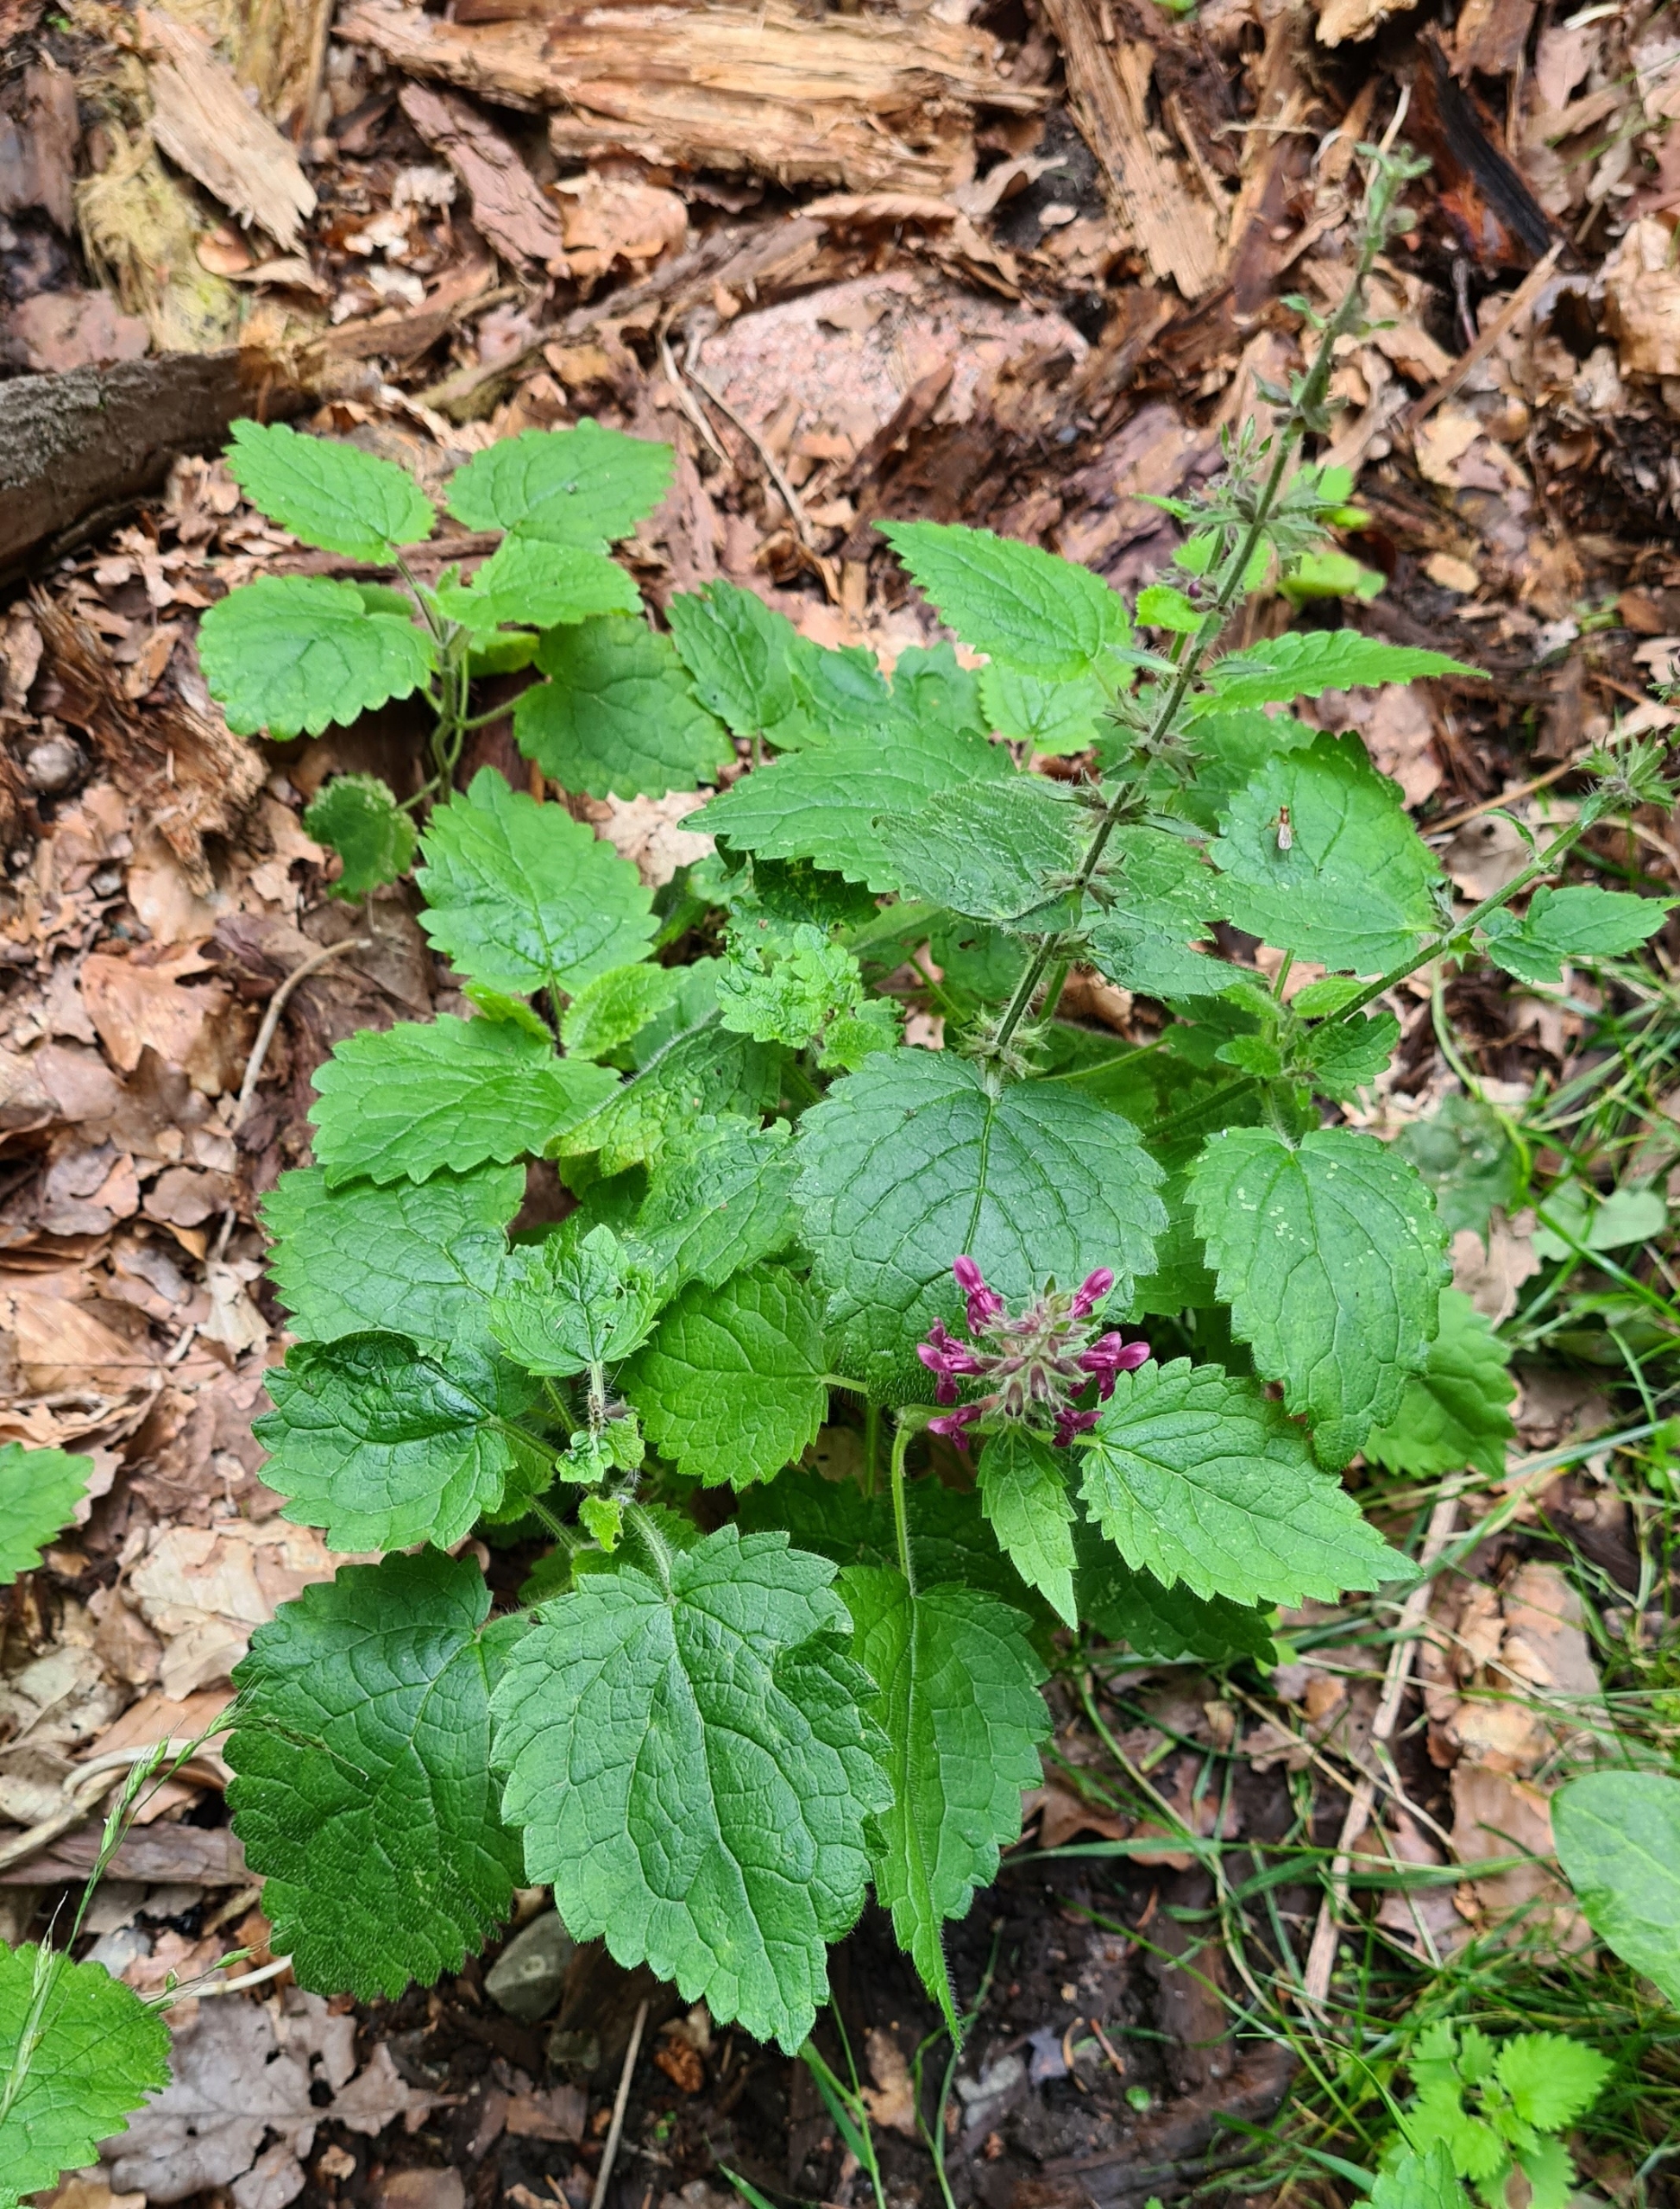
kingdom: Plantae
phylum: Tracheophyta
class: Magnoliopsida
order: Lamiales
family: Lamiaceae
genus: Stachys
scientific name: Stachys sylvatica
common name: Skov-galtetand
